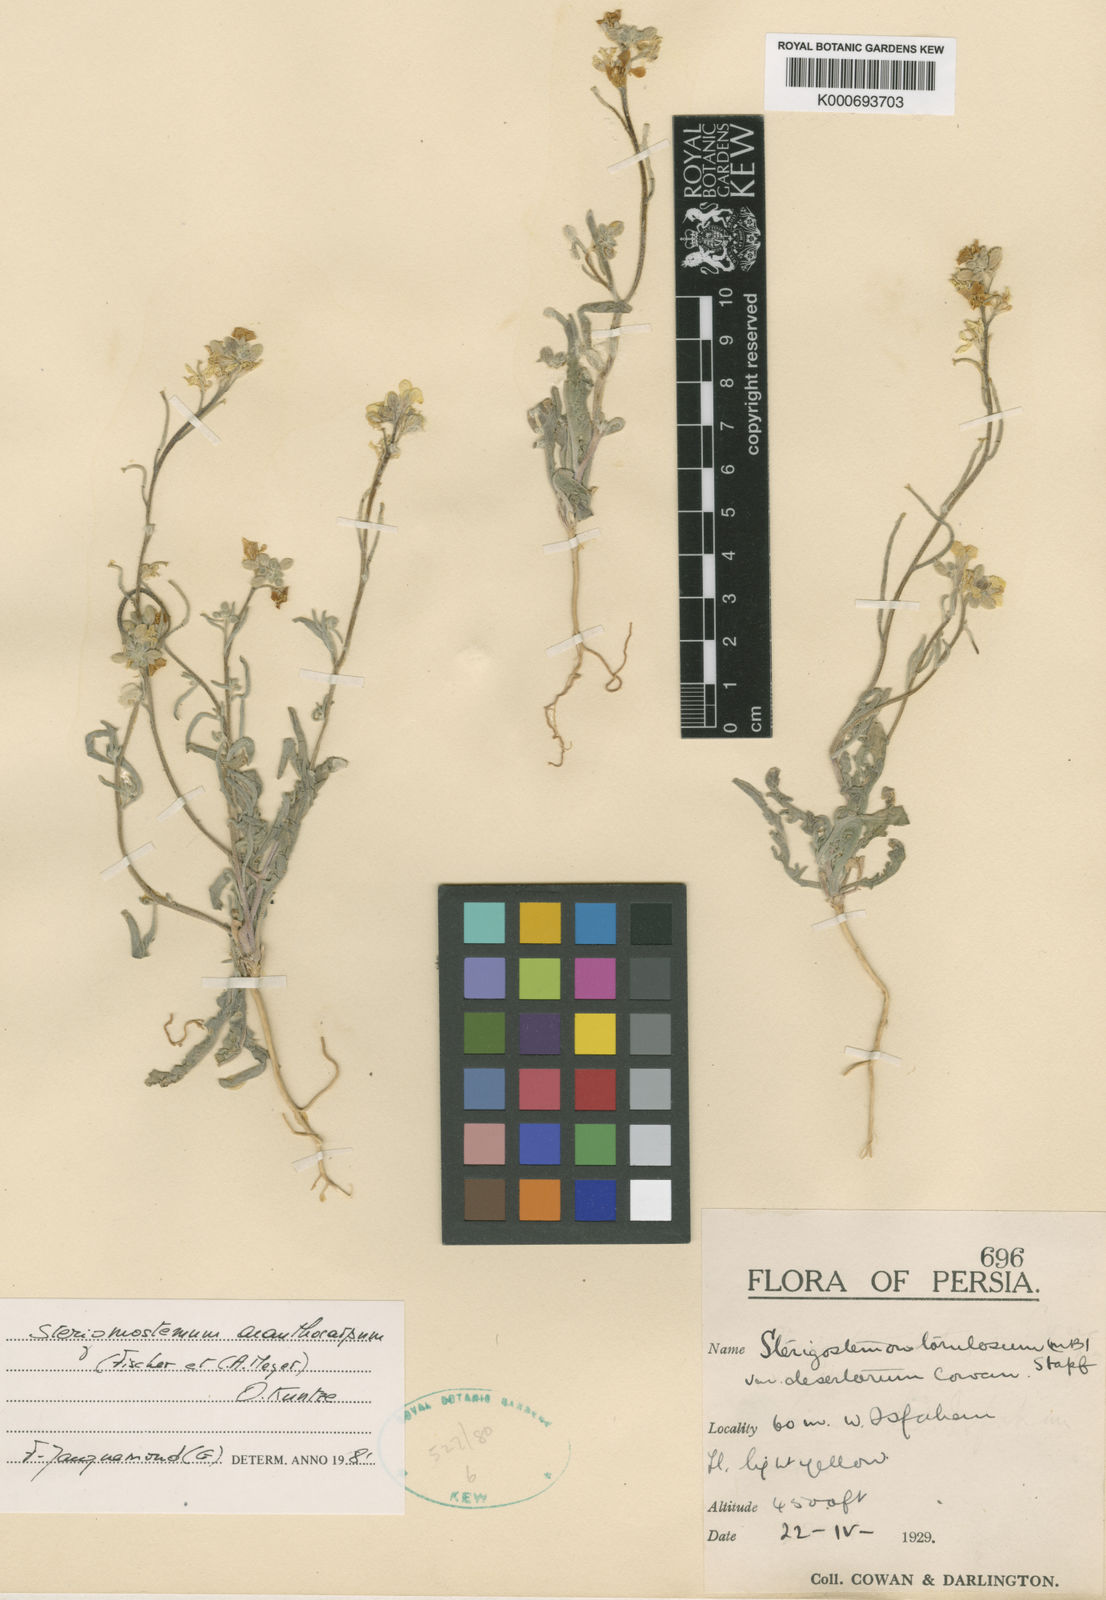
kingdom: Plantae
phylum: Tracheophyta
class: Magnoliopsida
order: Brassicales
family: Brassicaceae
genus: Sterigmostemum
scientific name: Sterigmostemum
